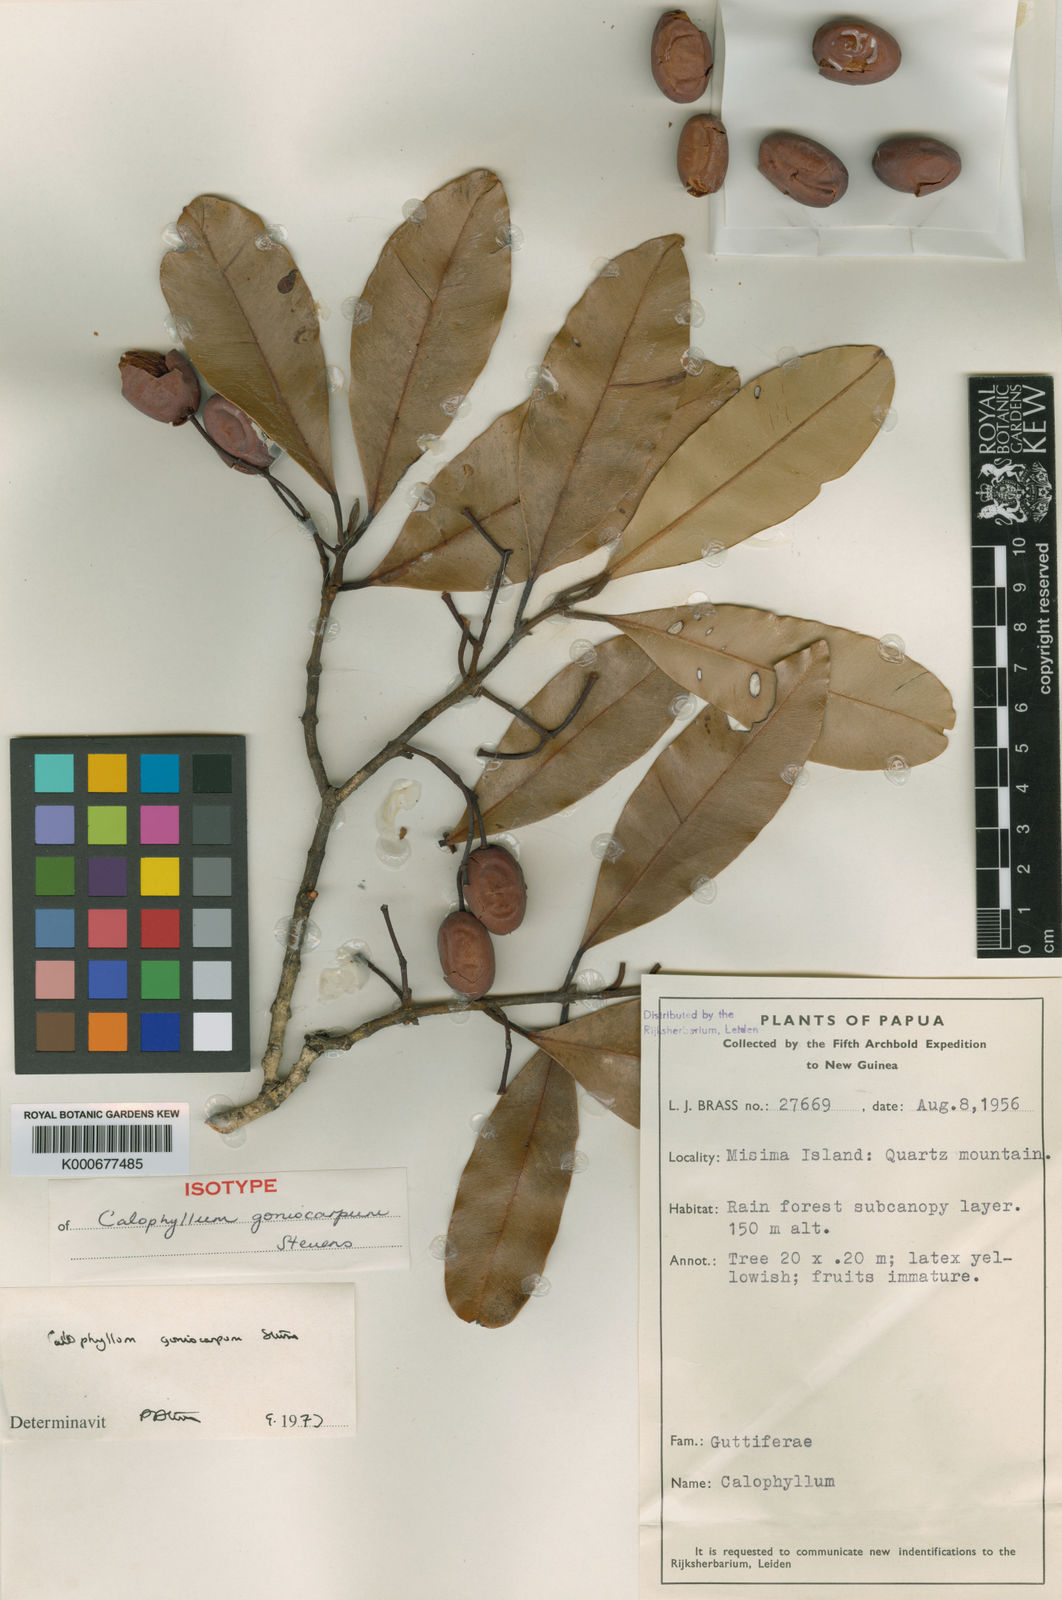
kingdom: Plantae
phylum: Tracheophyta
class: Magnoliopsida
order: Malpighiales
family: Calophyllaceae
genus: Calophyllum
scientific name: Calophyllum goniocarpum
